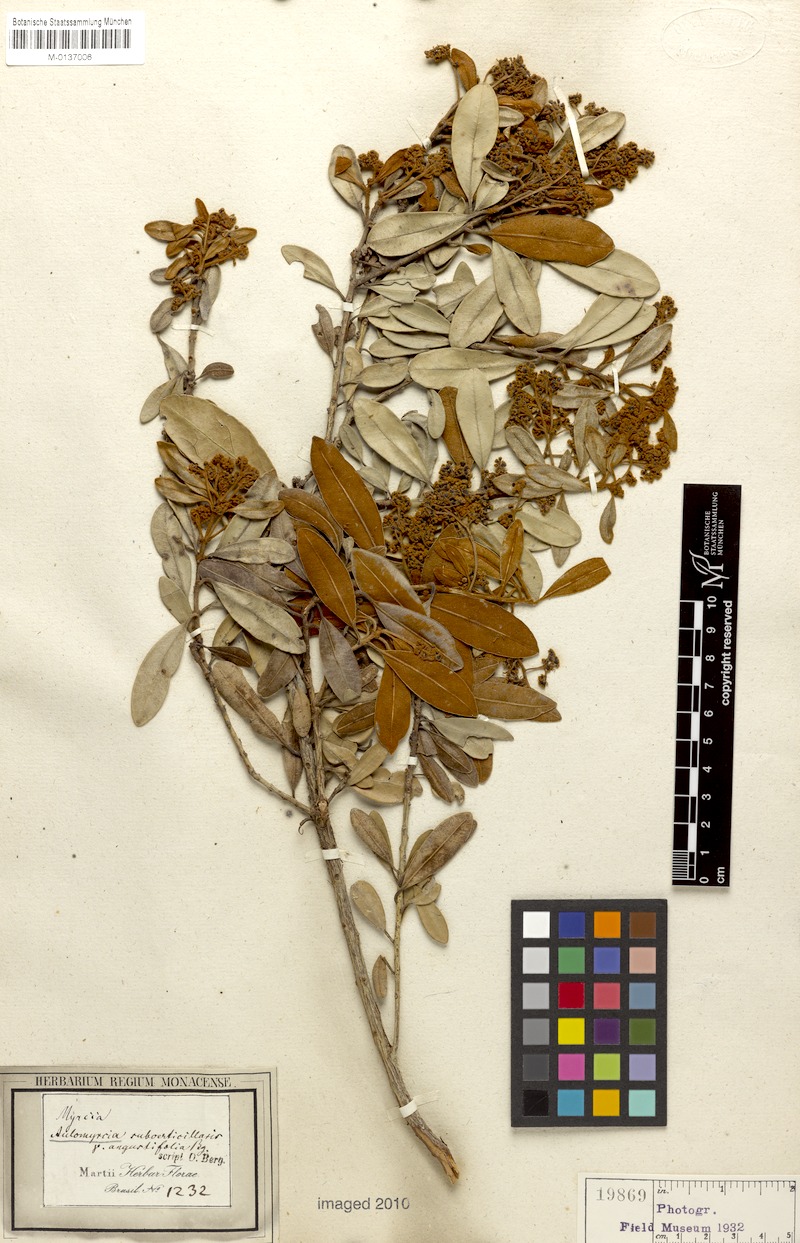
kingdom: Plantae
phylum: Tracheophyta
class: Magnoliopsida
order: Myrtales
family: Myrtaceae
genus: Myrcia
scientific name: Myrcia subverticillaris
